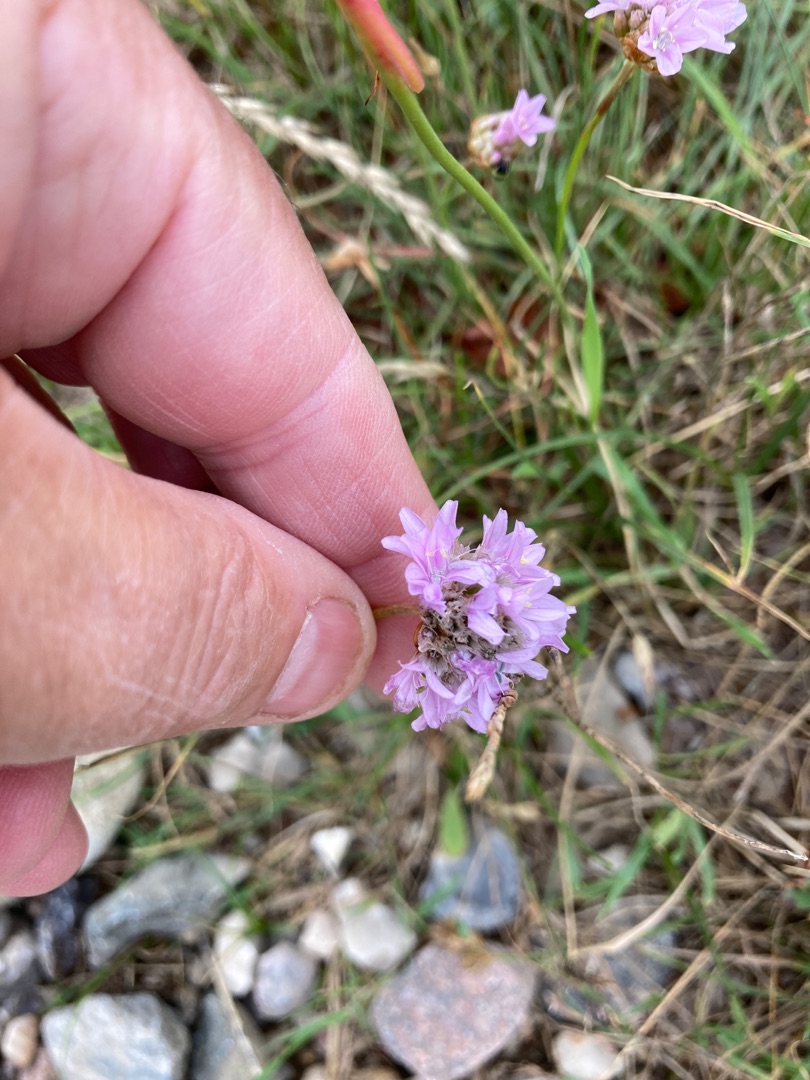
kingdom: Plantae
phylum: Tracheophyta
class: Magnoliopsida
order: Caryophyllales
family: Plumbaginaceae
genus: Armeria
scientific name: Armeria maritima
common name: Engelskgræs
